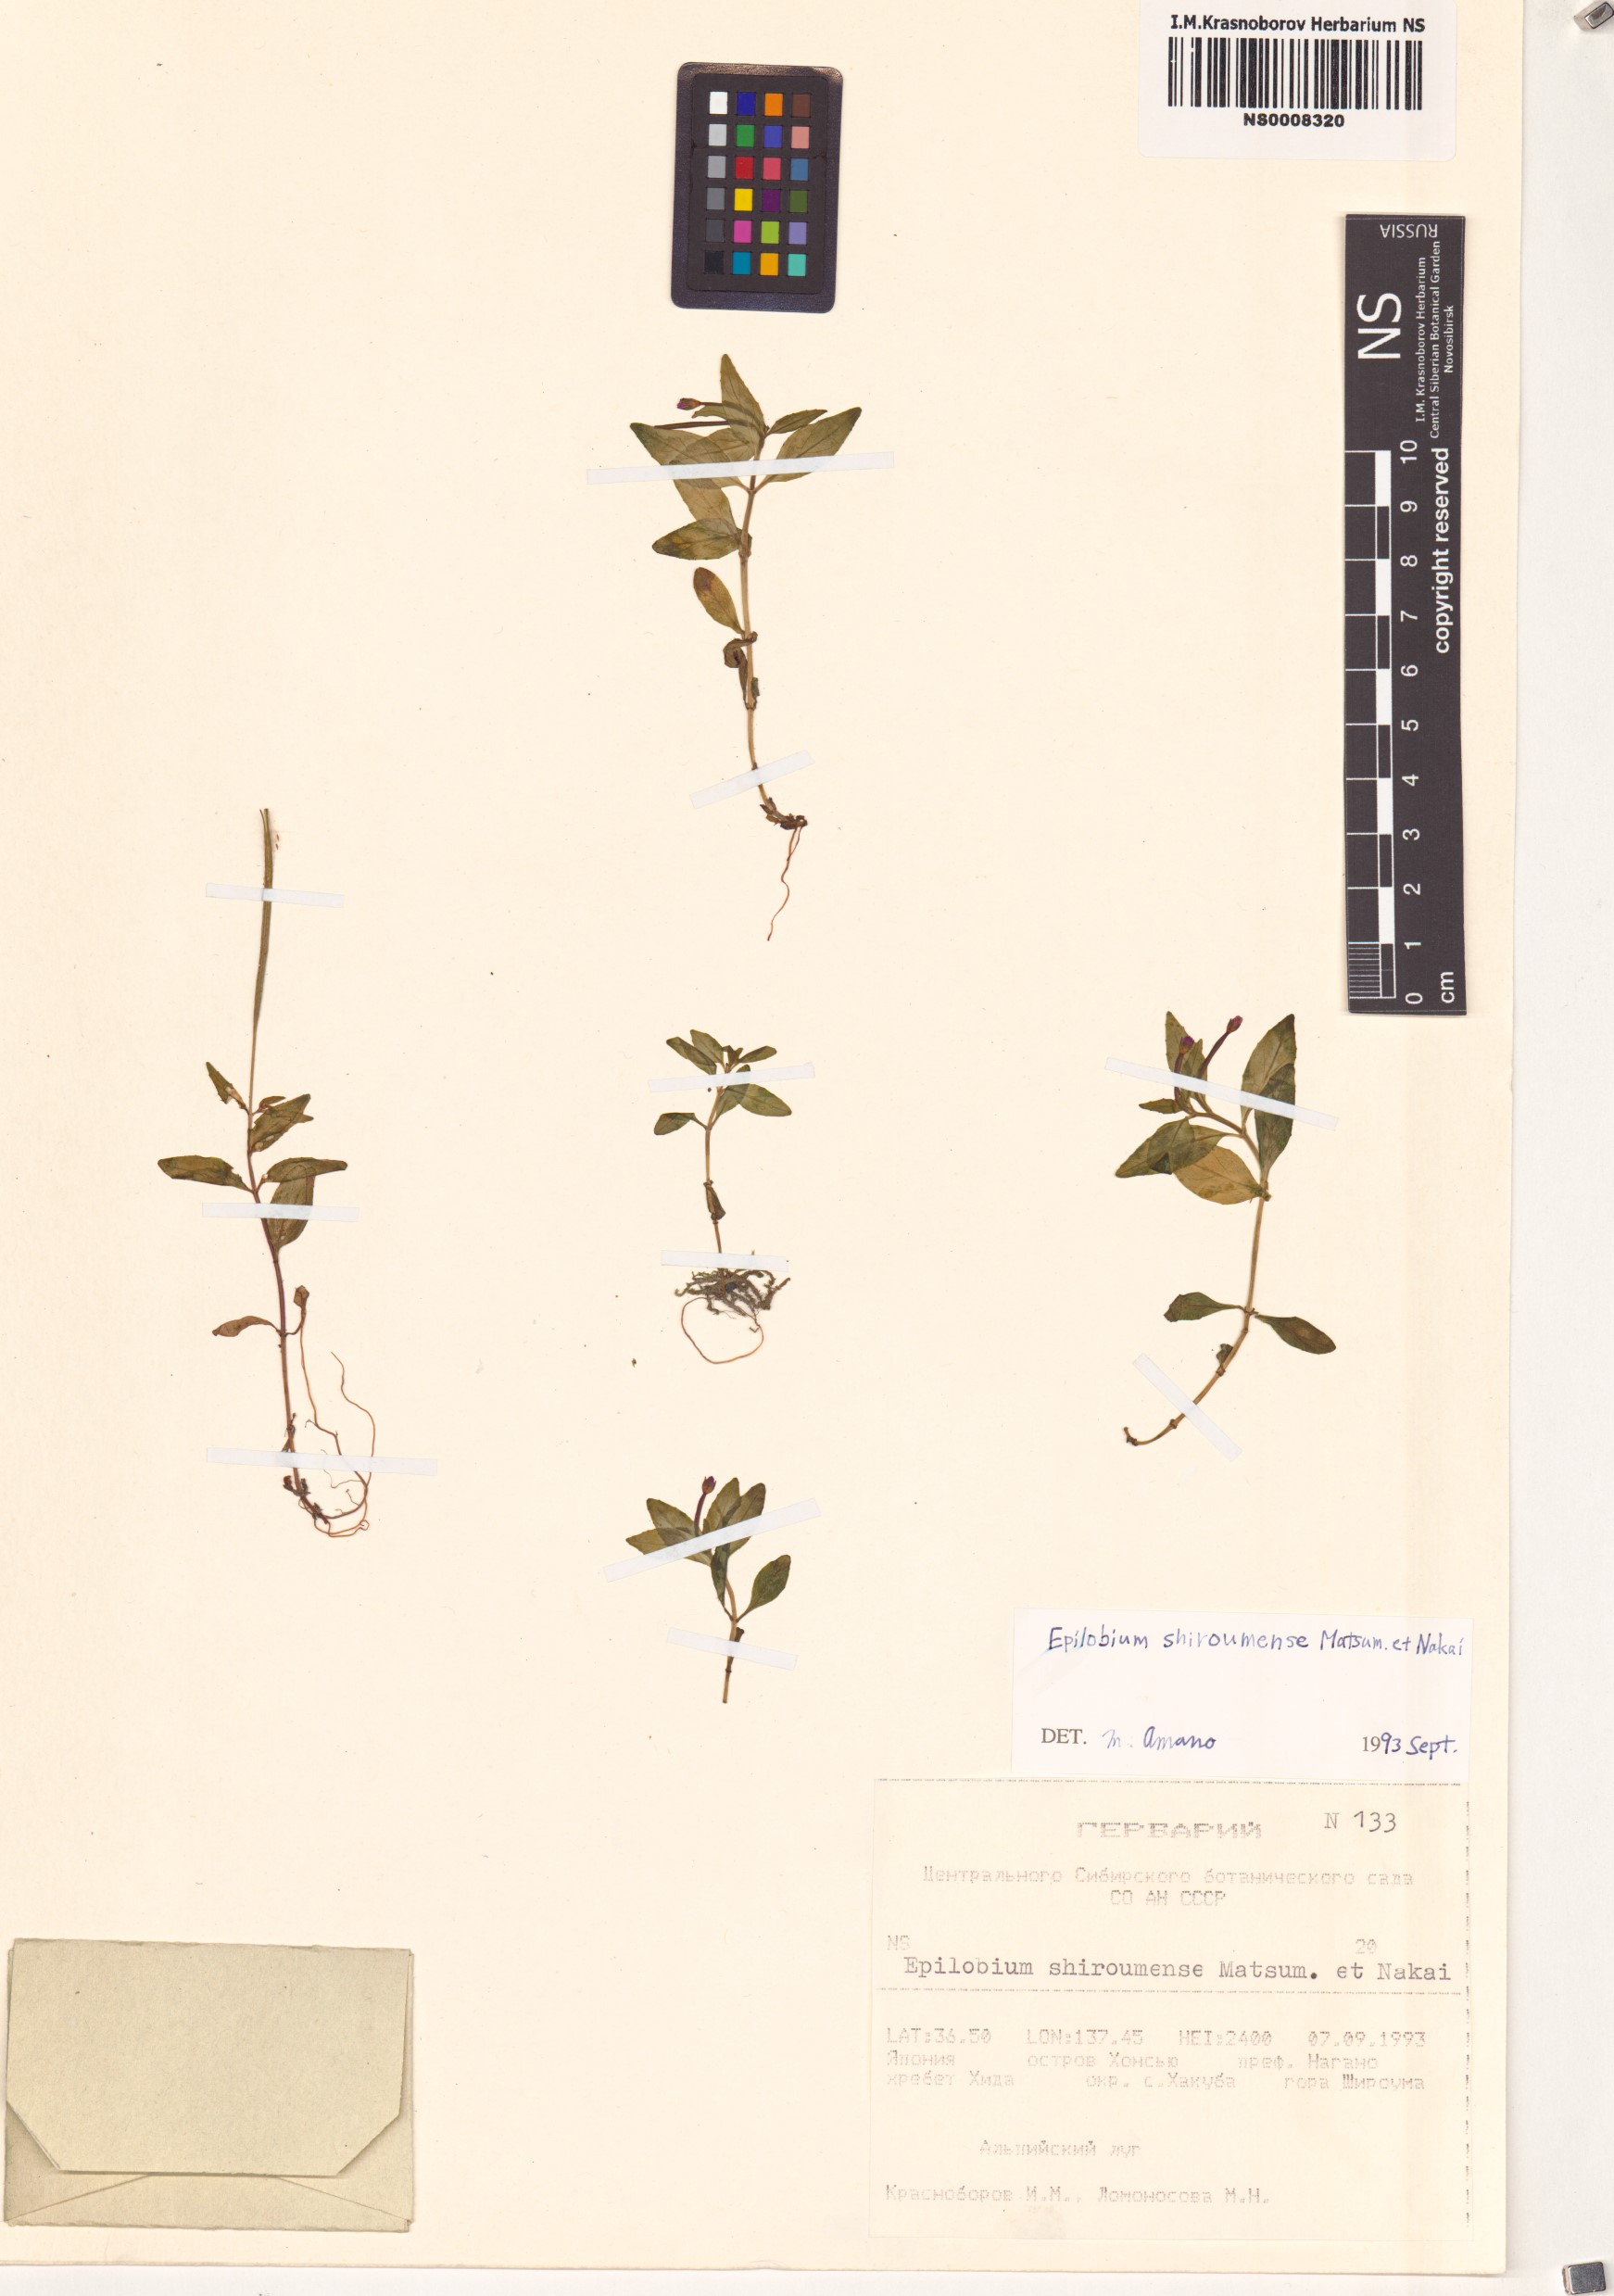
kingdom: Plantae
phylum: Tracheophyta
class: Magnoliopsida
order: Myrtales
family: Onagraceae
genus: Epilobium
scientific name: Epilobium lactiflorum
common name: Milkflower willowherb
